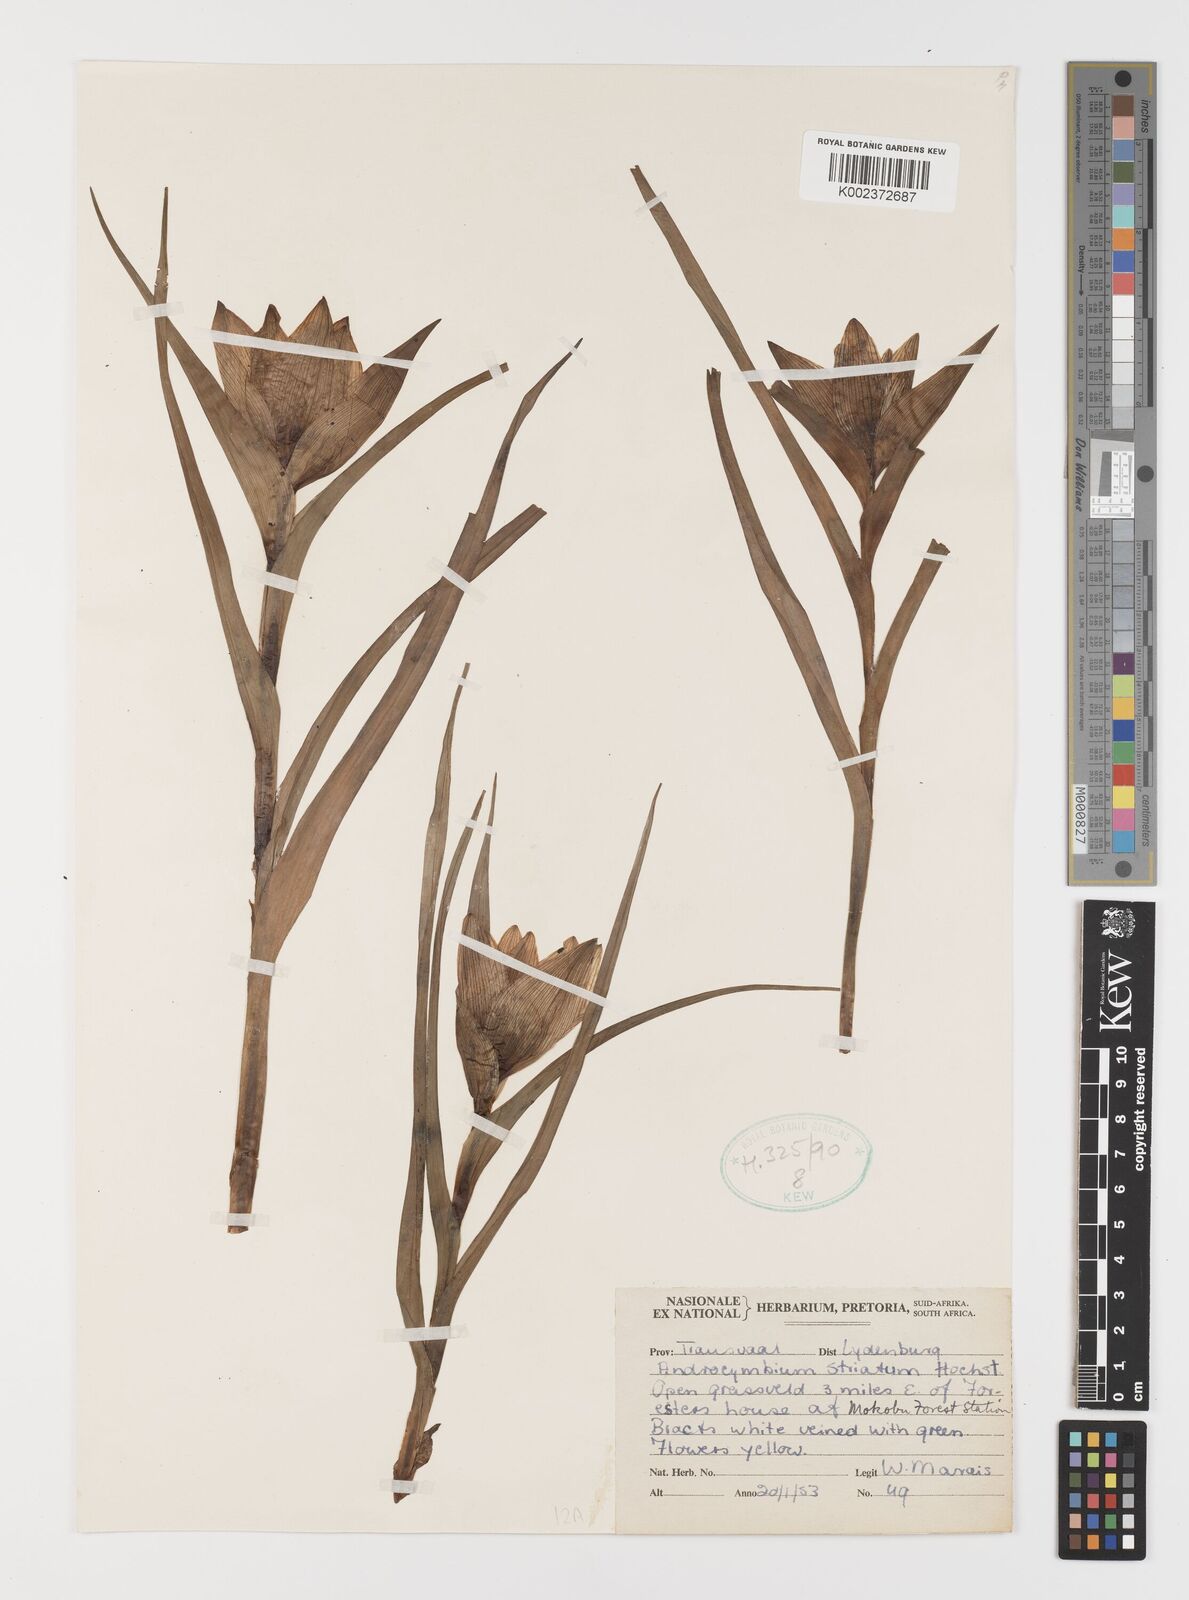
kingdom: Plantae
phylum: Tracheophyta
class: Liliopsida
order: Liliales
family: Colchicaceae
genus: Colchicum
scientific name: Colchicum striatum
